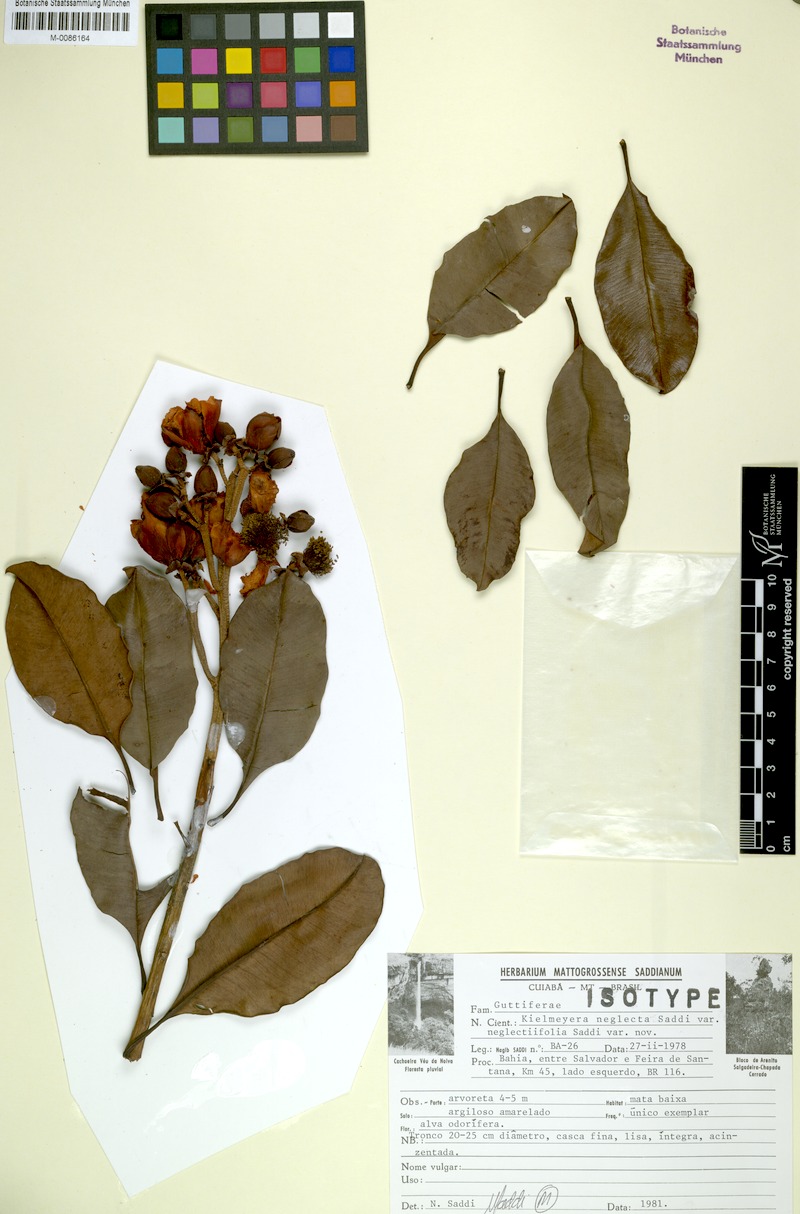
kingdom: Plantae
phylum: Tracheophyta
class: Magnoliopsida
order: Malpighiales
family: Calophyllaceae
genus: Kielmeyera
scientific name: Kielmeyera neglecta
